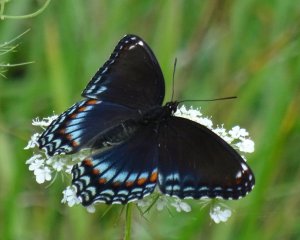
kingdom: Animalia
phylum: Arthropoda
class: Insecta
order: Lepidoptera
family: Nymphalidae
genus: Limenitis
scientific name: Limenitis astyanax
